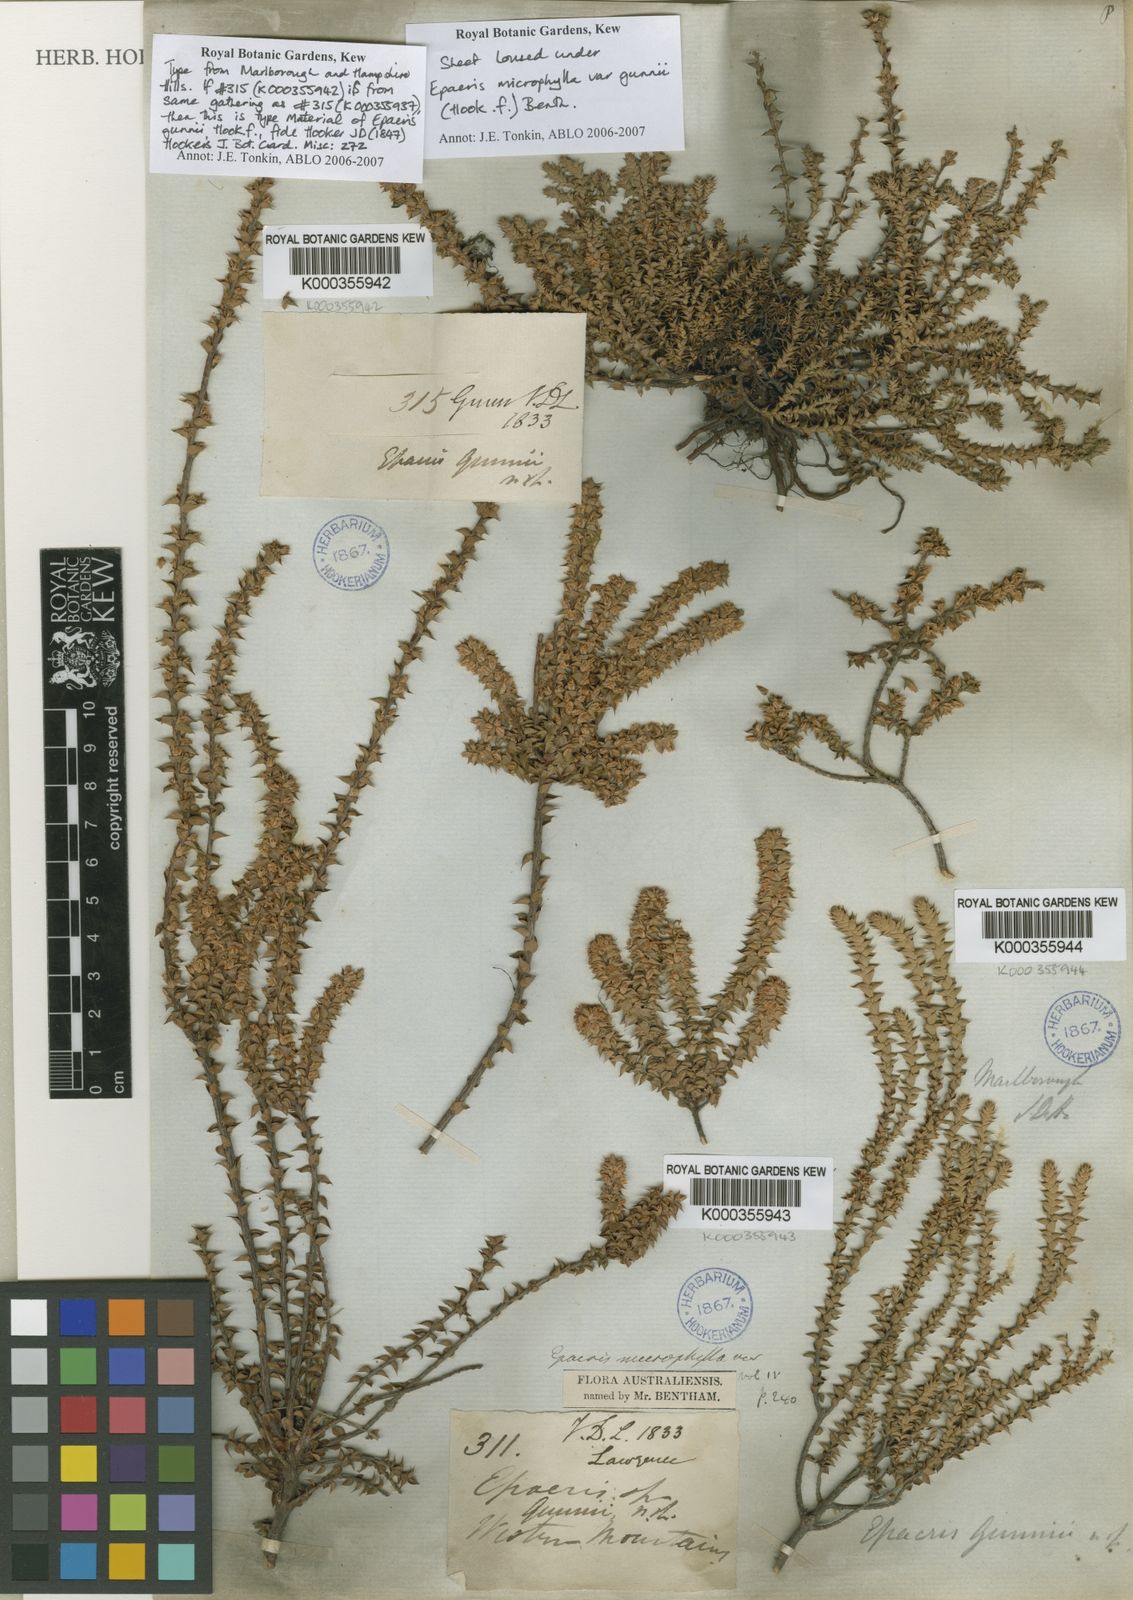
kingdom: Plantae
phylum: Tracheophyta
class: Magnoliopsida
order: Ericales
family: Ericaceae
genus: Epacris
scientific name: Epacris microphylla
